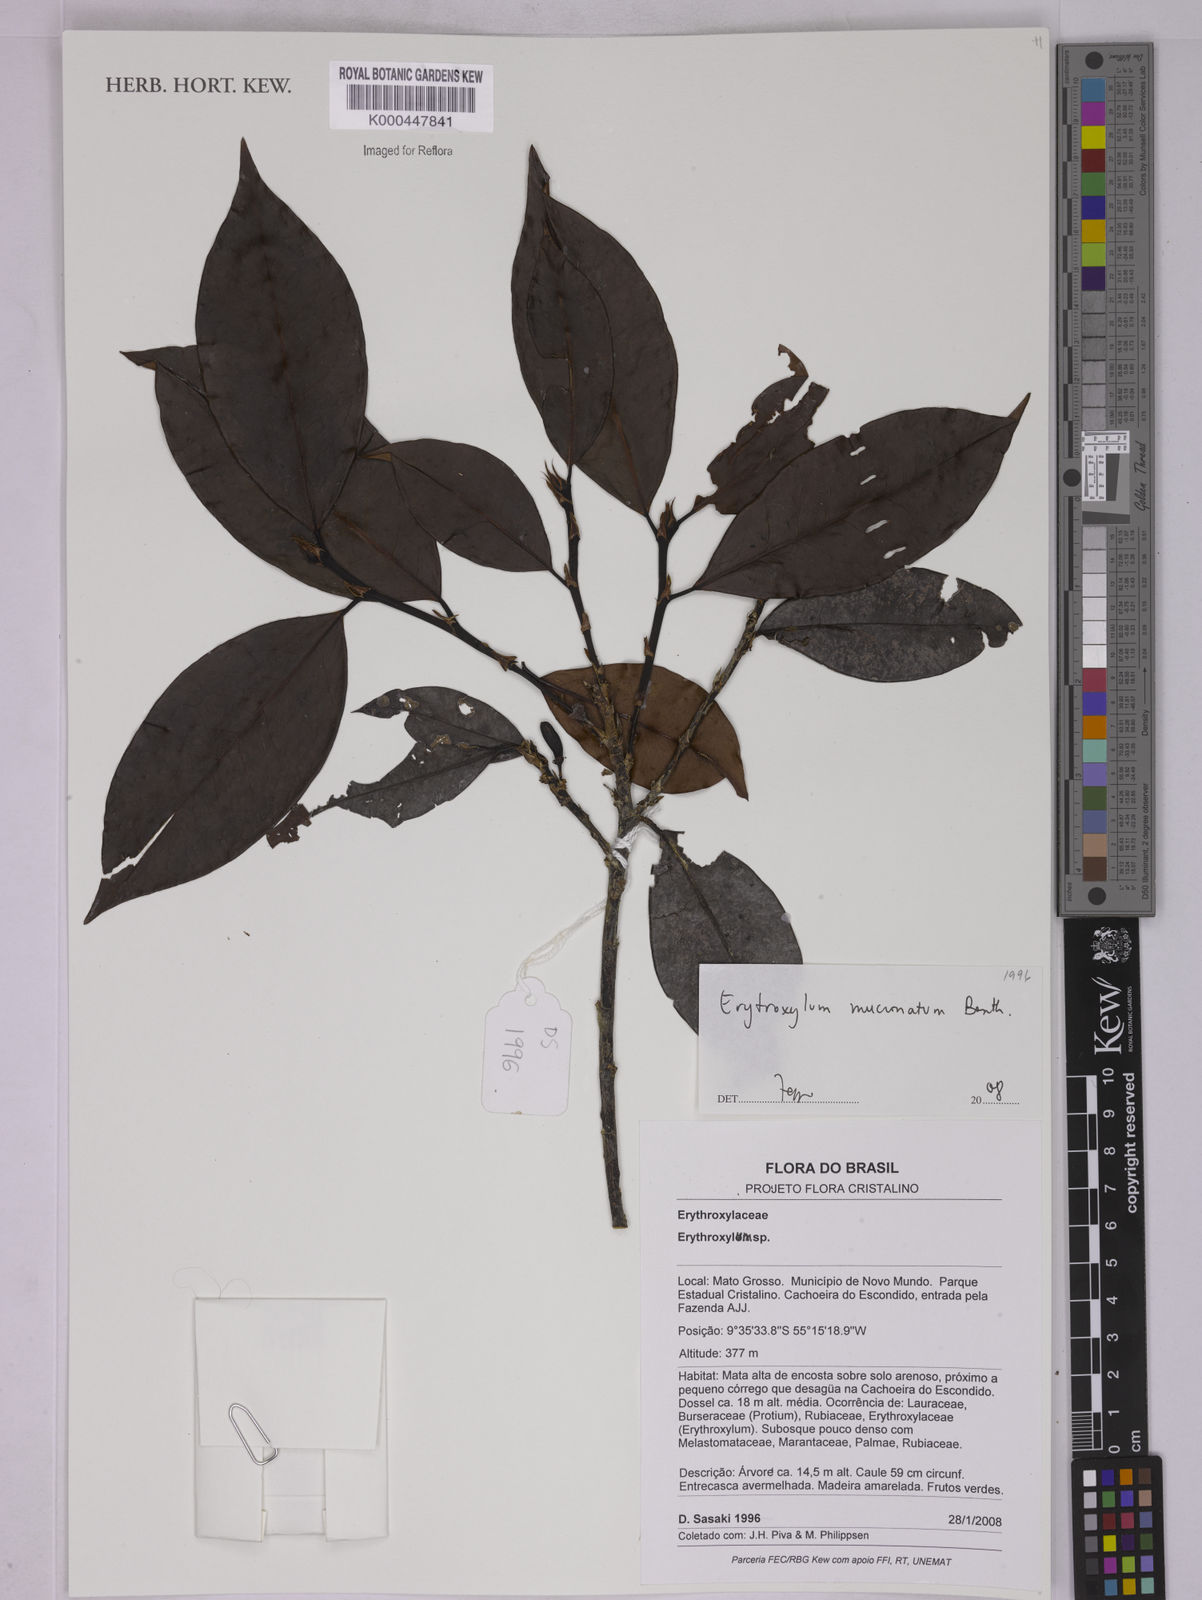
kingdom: Plantae
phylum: Tracheophyta
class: Magnoliopsida
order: Malpighiales
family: Erythroxylaceae
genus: Erythroxylum
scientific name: Erythroxylum mucronatum
